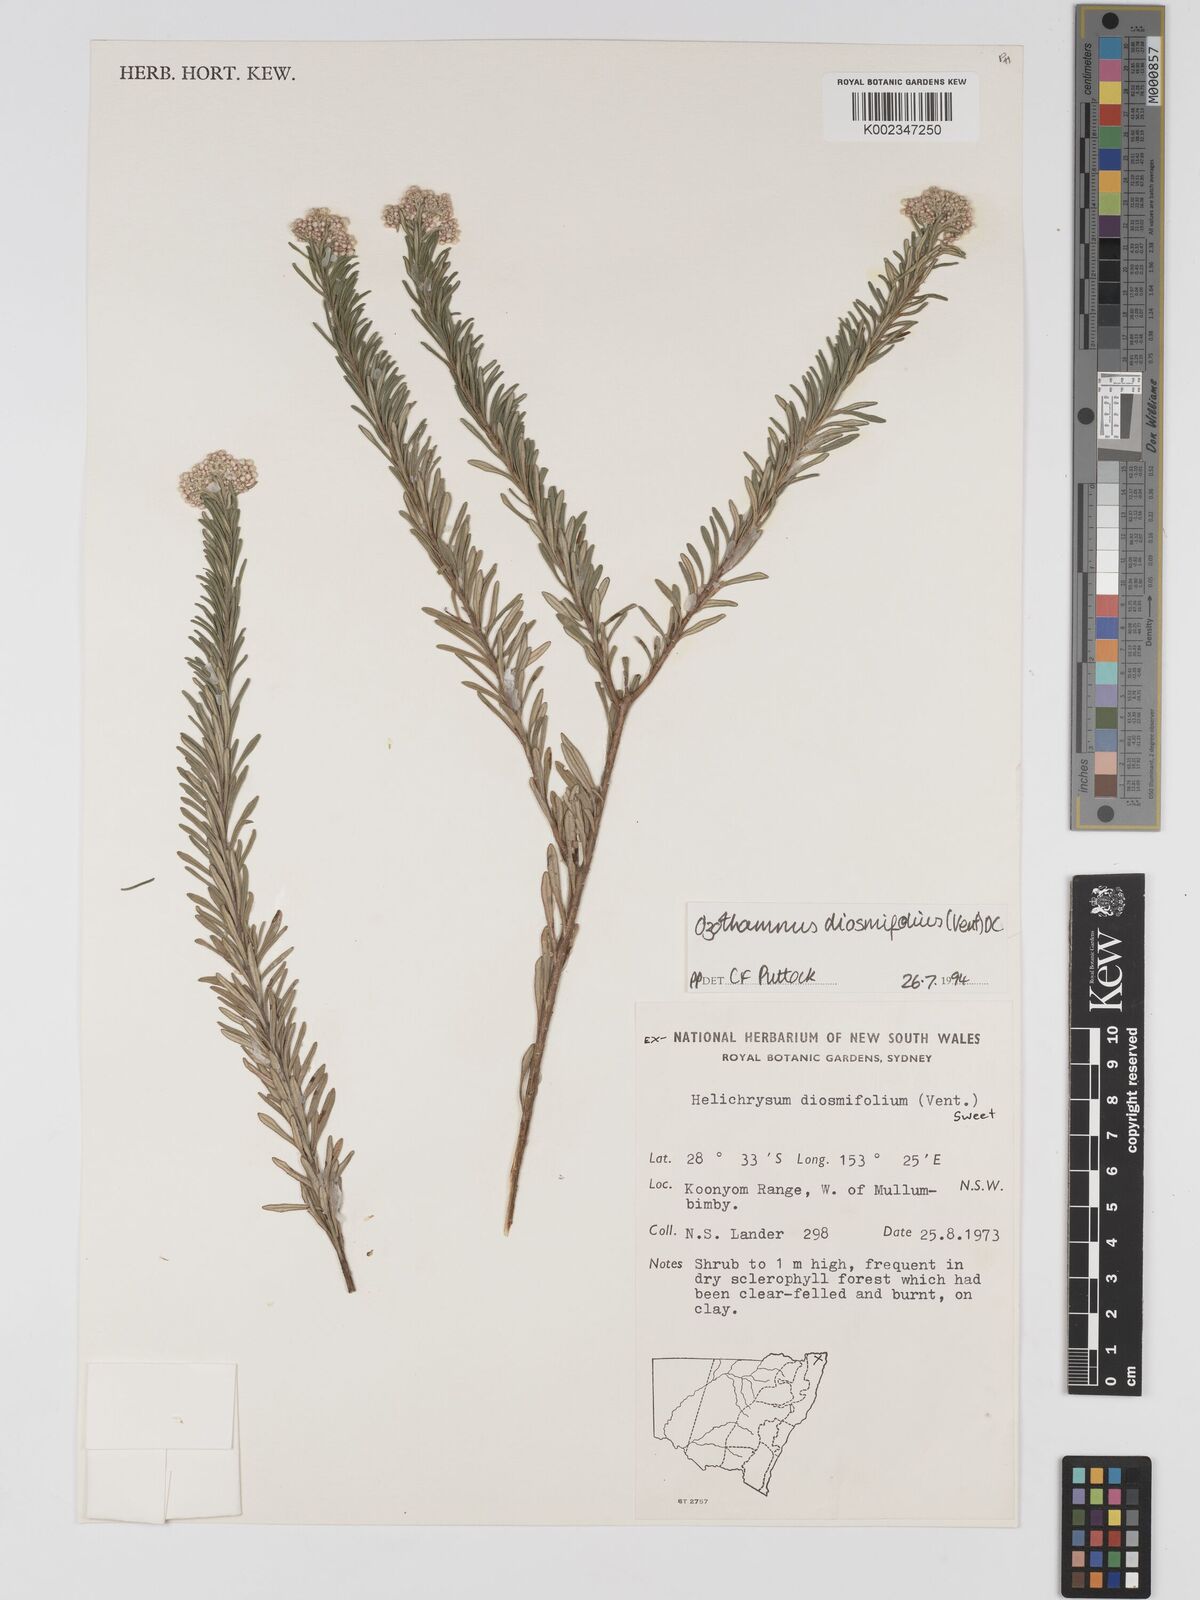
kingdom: Plantae
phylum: Tracheophyta
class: Magnoliopsida
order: Asterales
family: Asteraceae
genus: Ozothamnus
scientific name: Ozothamnus diosmifolius
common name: White-dogwood
